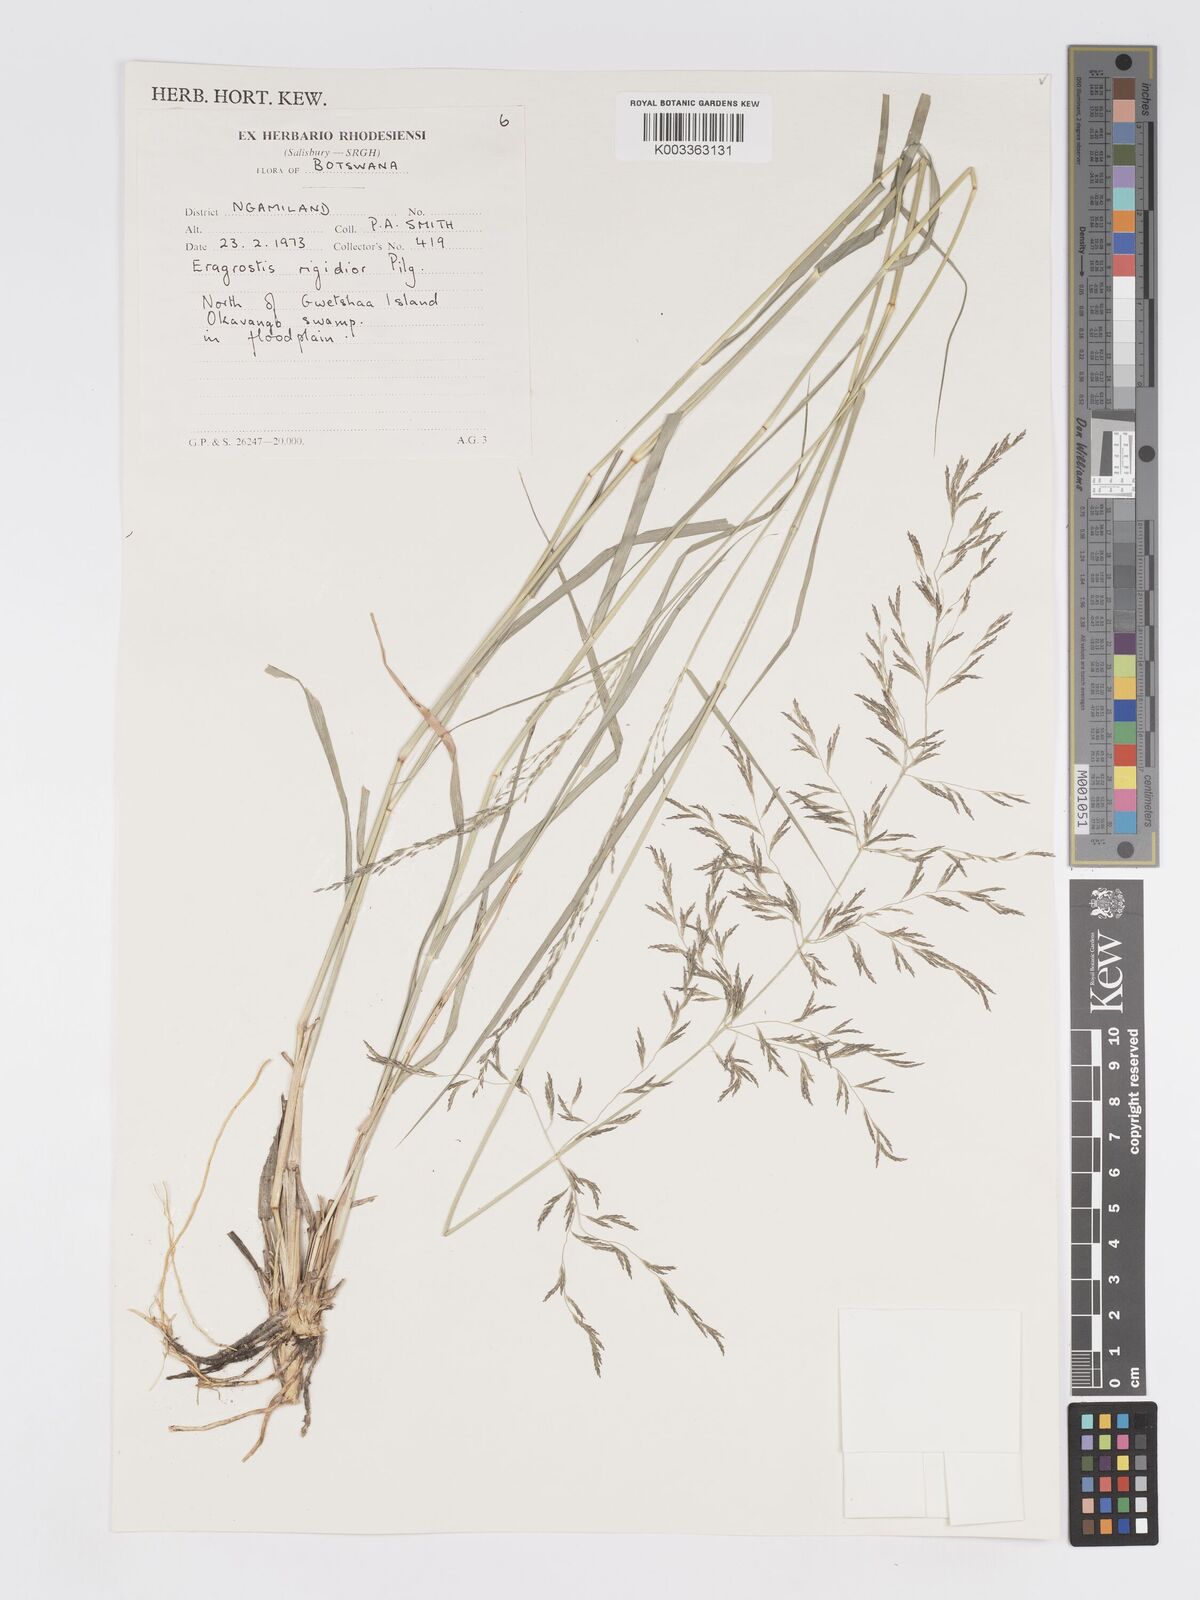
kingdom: Plantae
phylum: Tracheophyta
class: Liliopsida
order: Poales
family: Poaceae
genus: Eragrostis
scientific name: Eragrostis cylindriflora
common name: Cylinderflower lovegrass
